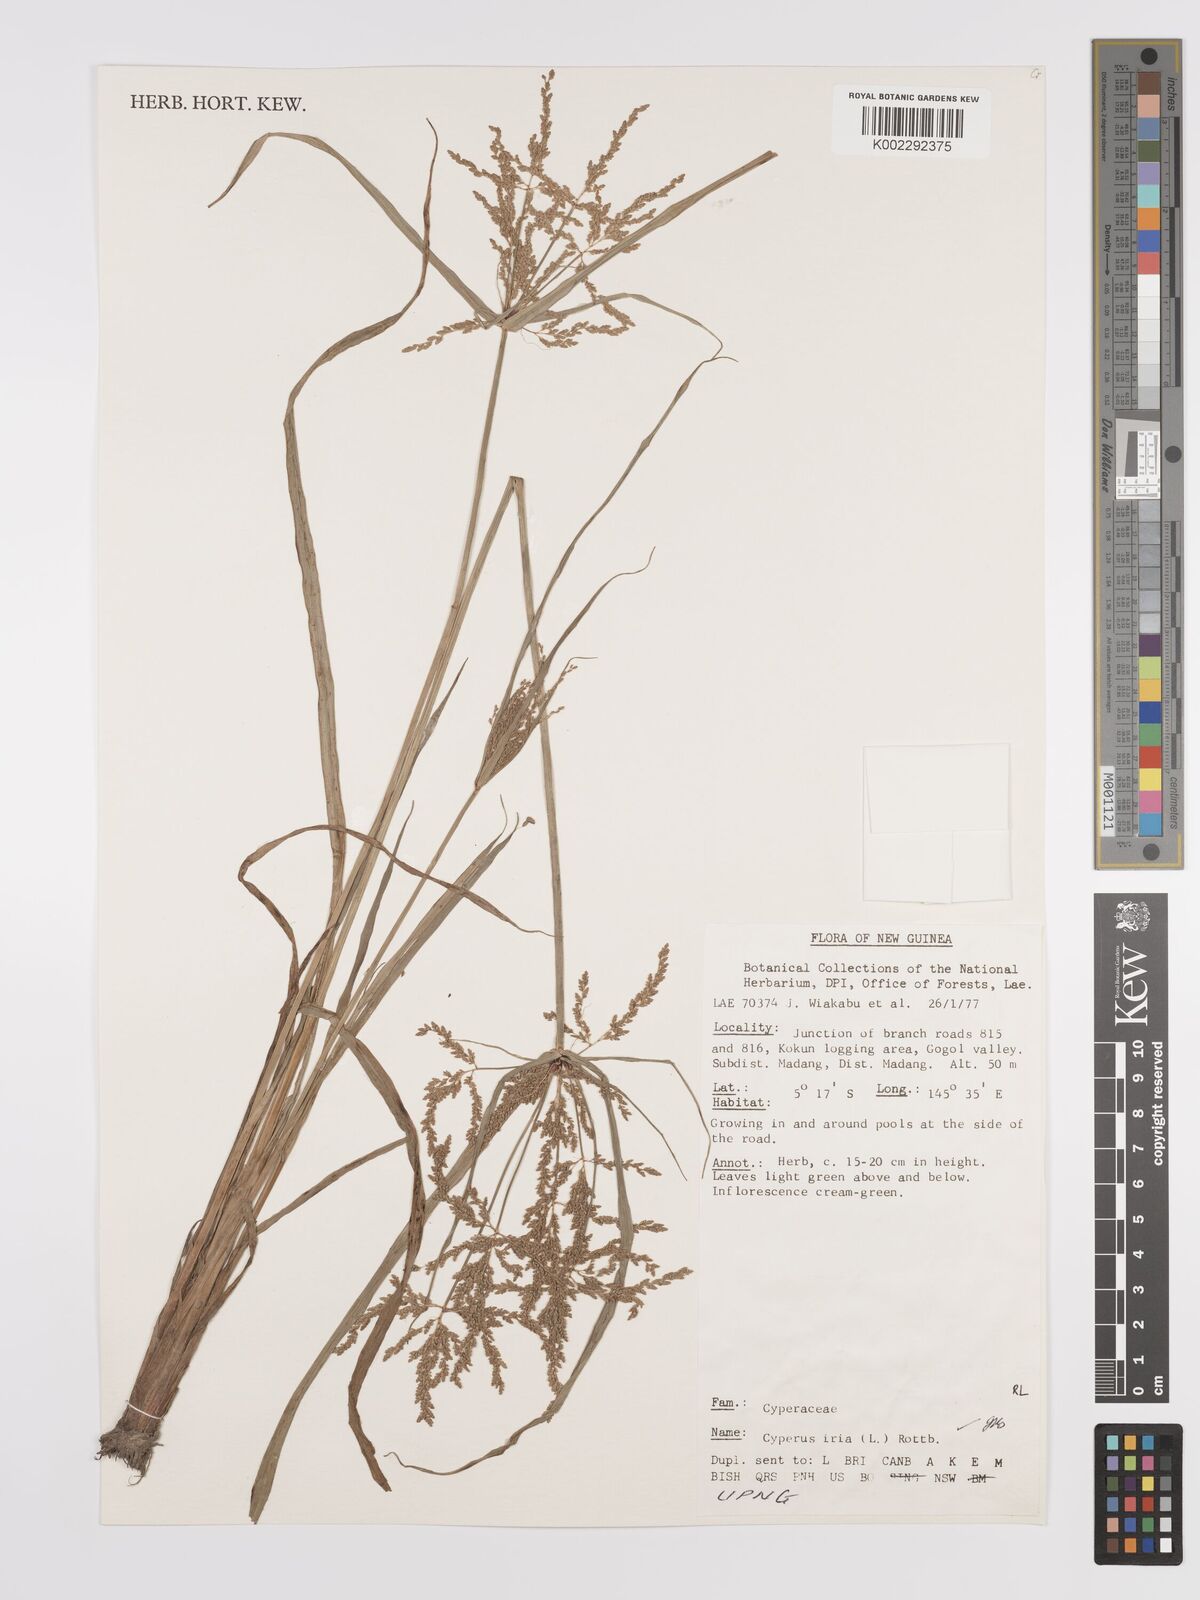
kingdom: Plantae
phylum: Tracheophyta
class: Liliopsida
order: Poales
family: Cyperaceae
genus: Cyperus
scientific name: Cyperus iria
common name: Ricefield flatsedge
